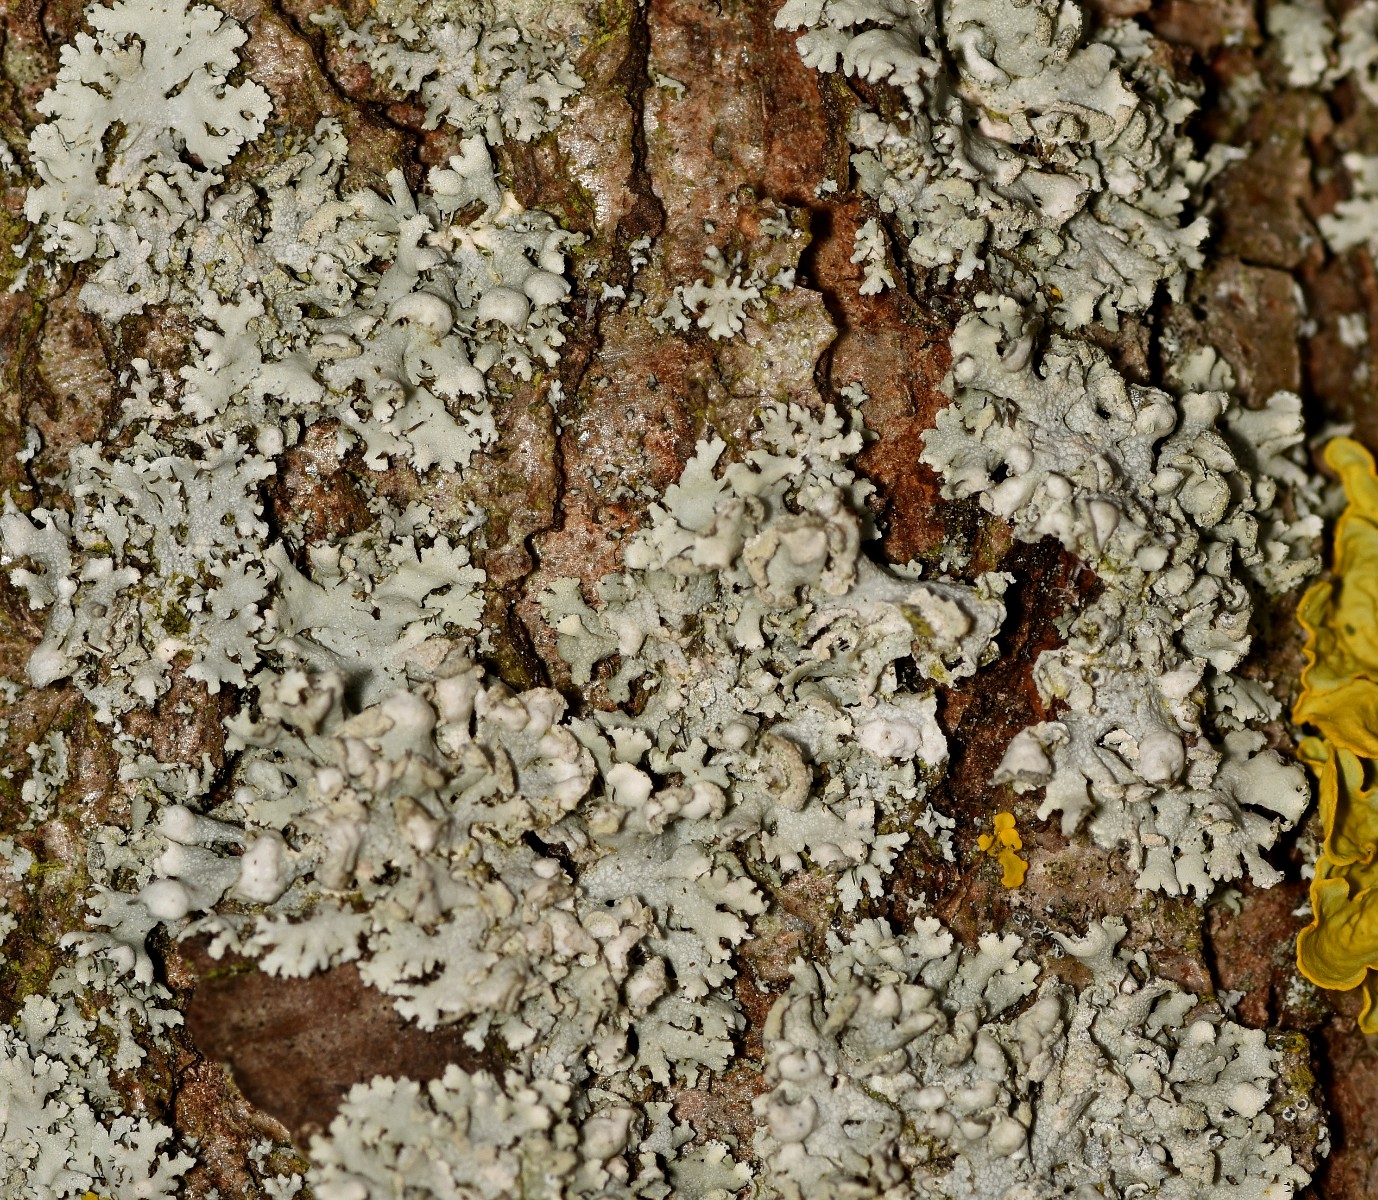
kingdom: Fungi
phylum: Ascomycota
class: Lecanoromycetes
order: Caliciales
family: Physciaceae
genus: Physcia
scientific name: Physcia adscendens
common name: hætte-rosetlav
